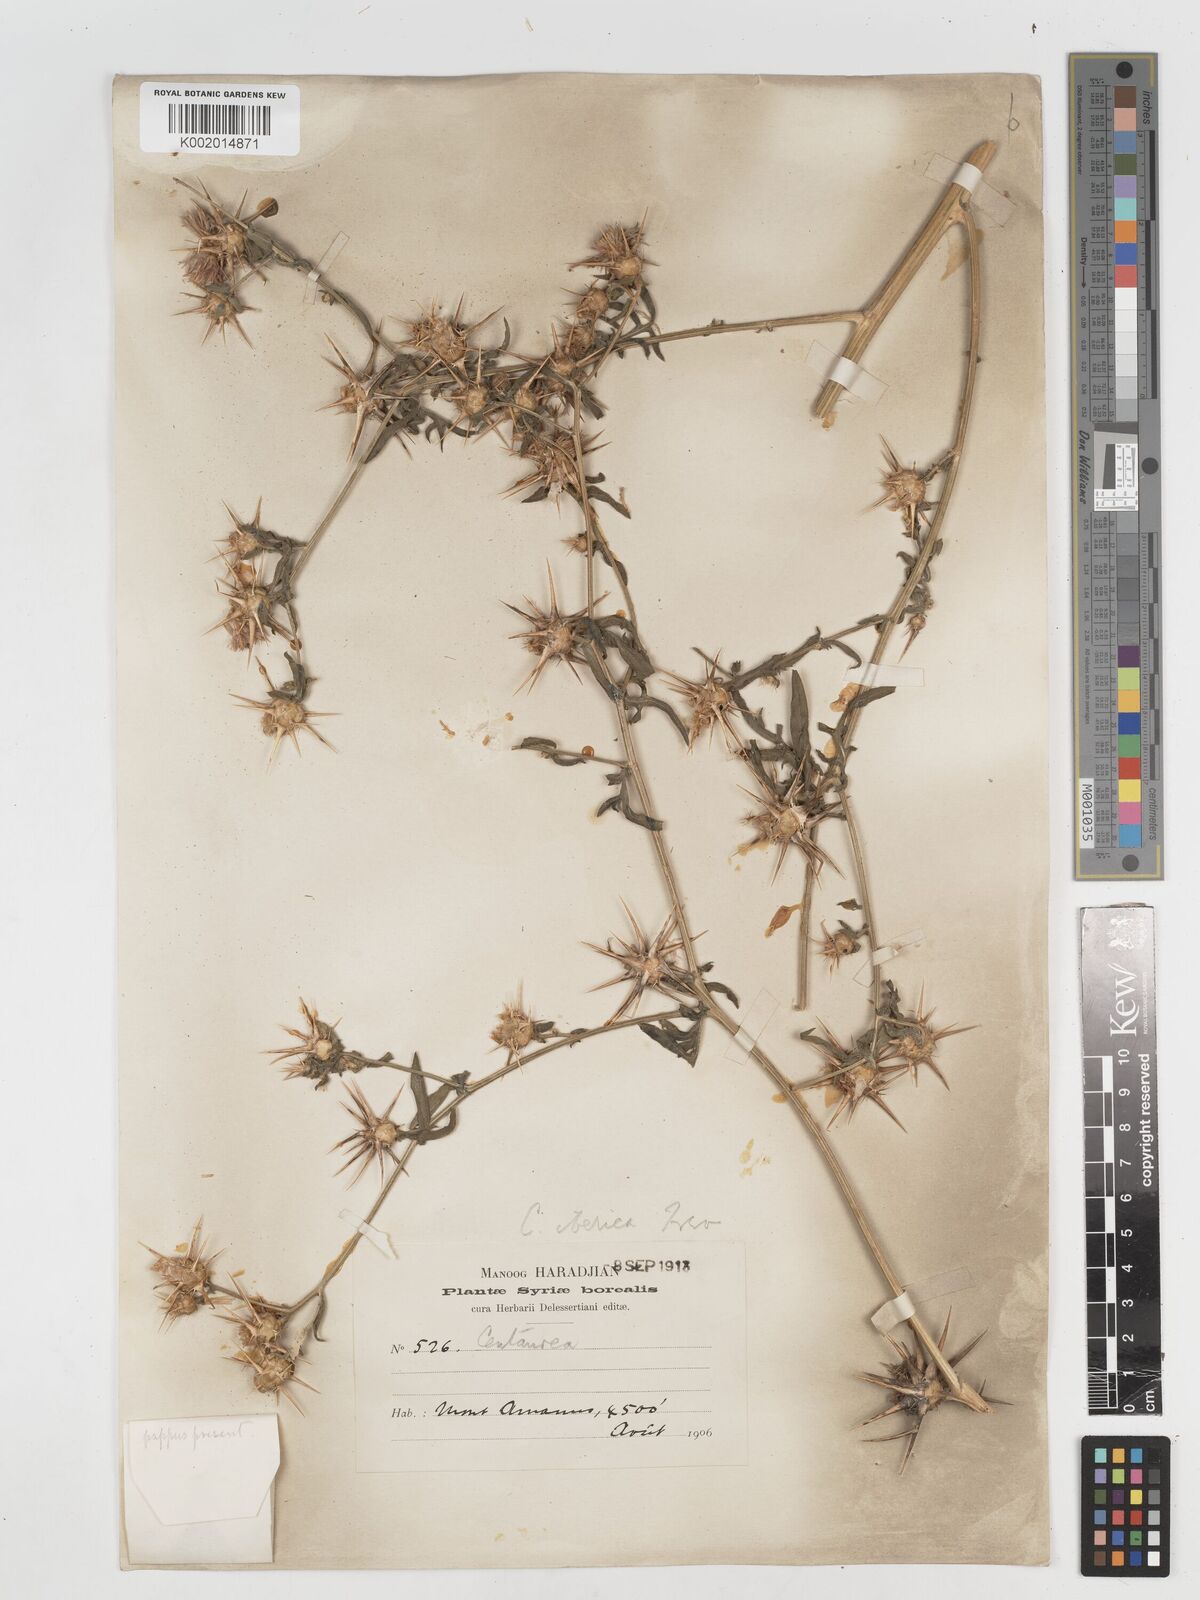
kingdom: Plantae
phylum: Tracheophyta
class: Magnoliopsida
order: Asterales
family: Asteraceae
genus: Centaurea
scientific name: Centaurea iberica
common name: Iberian knapweed
